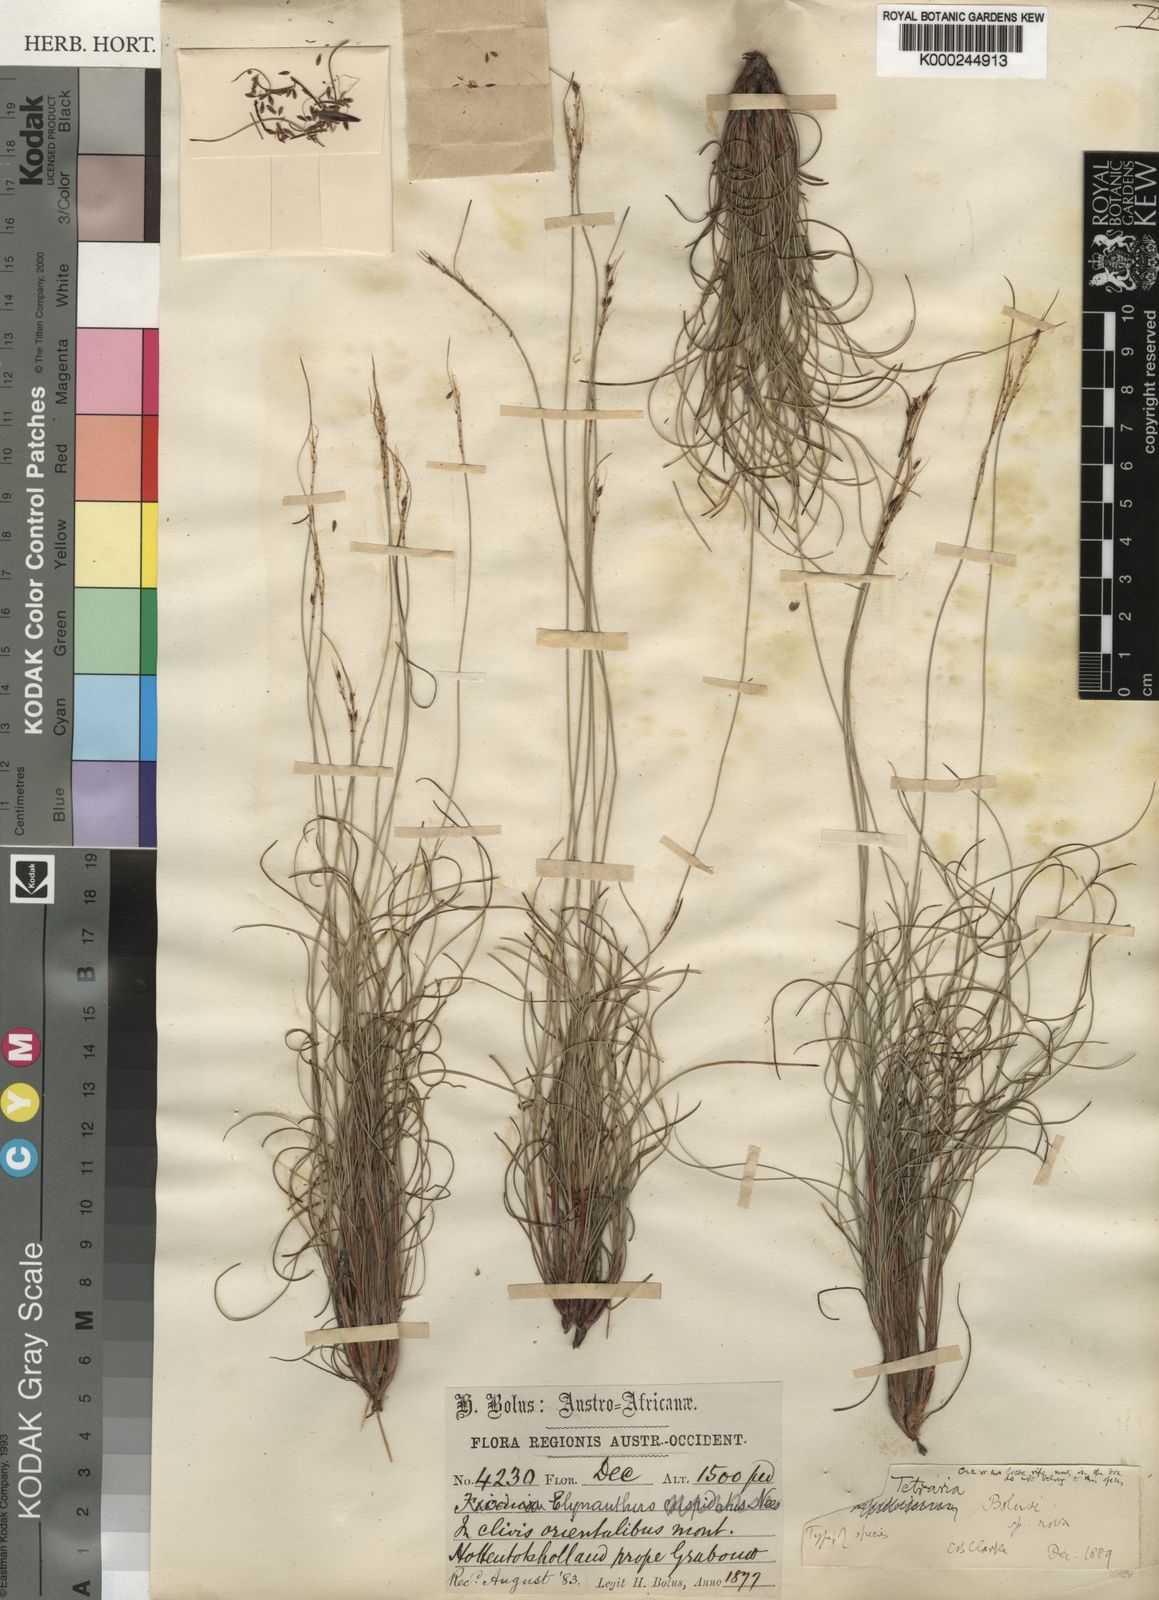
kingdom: Plantae
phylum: Tracheophyta
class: Liliopsida
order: Poales
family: Cyperaceae
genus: Schoenus
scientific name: Schoenus bolusii
